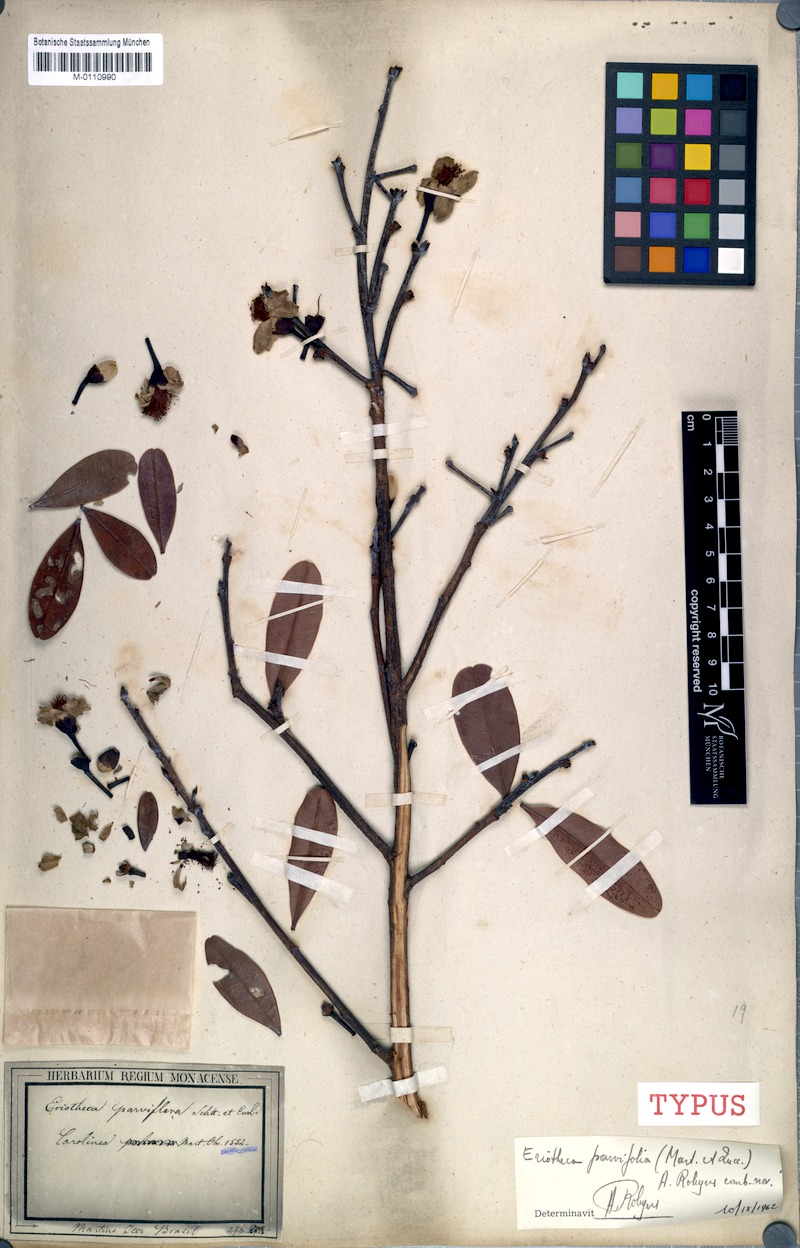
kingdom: Plantae
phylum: Tracheophyta
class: Magnoliopsida
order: Malvales
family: Malvaceae
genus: Eriotheca
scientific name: Eriotheca parvifolia
